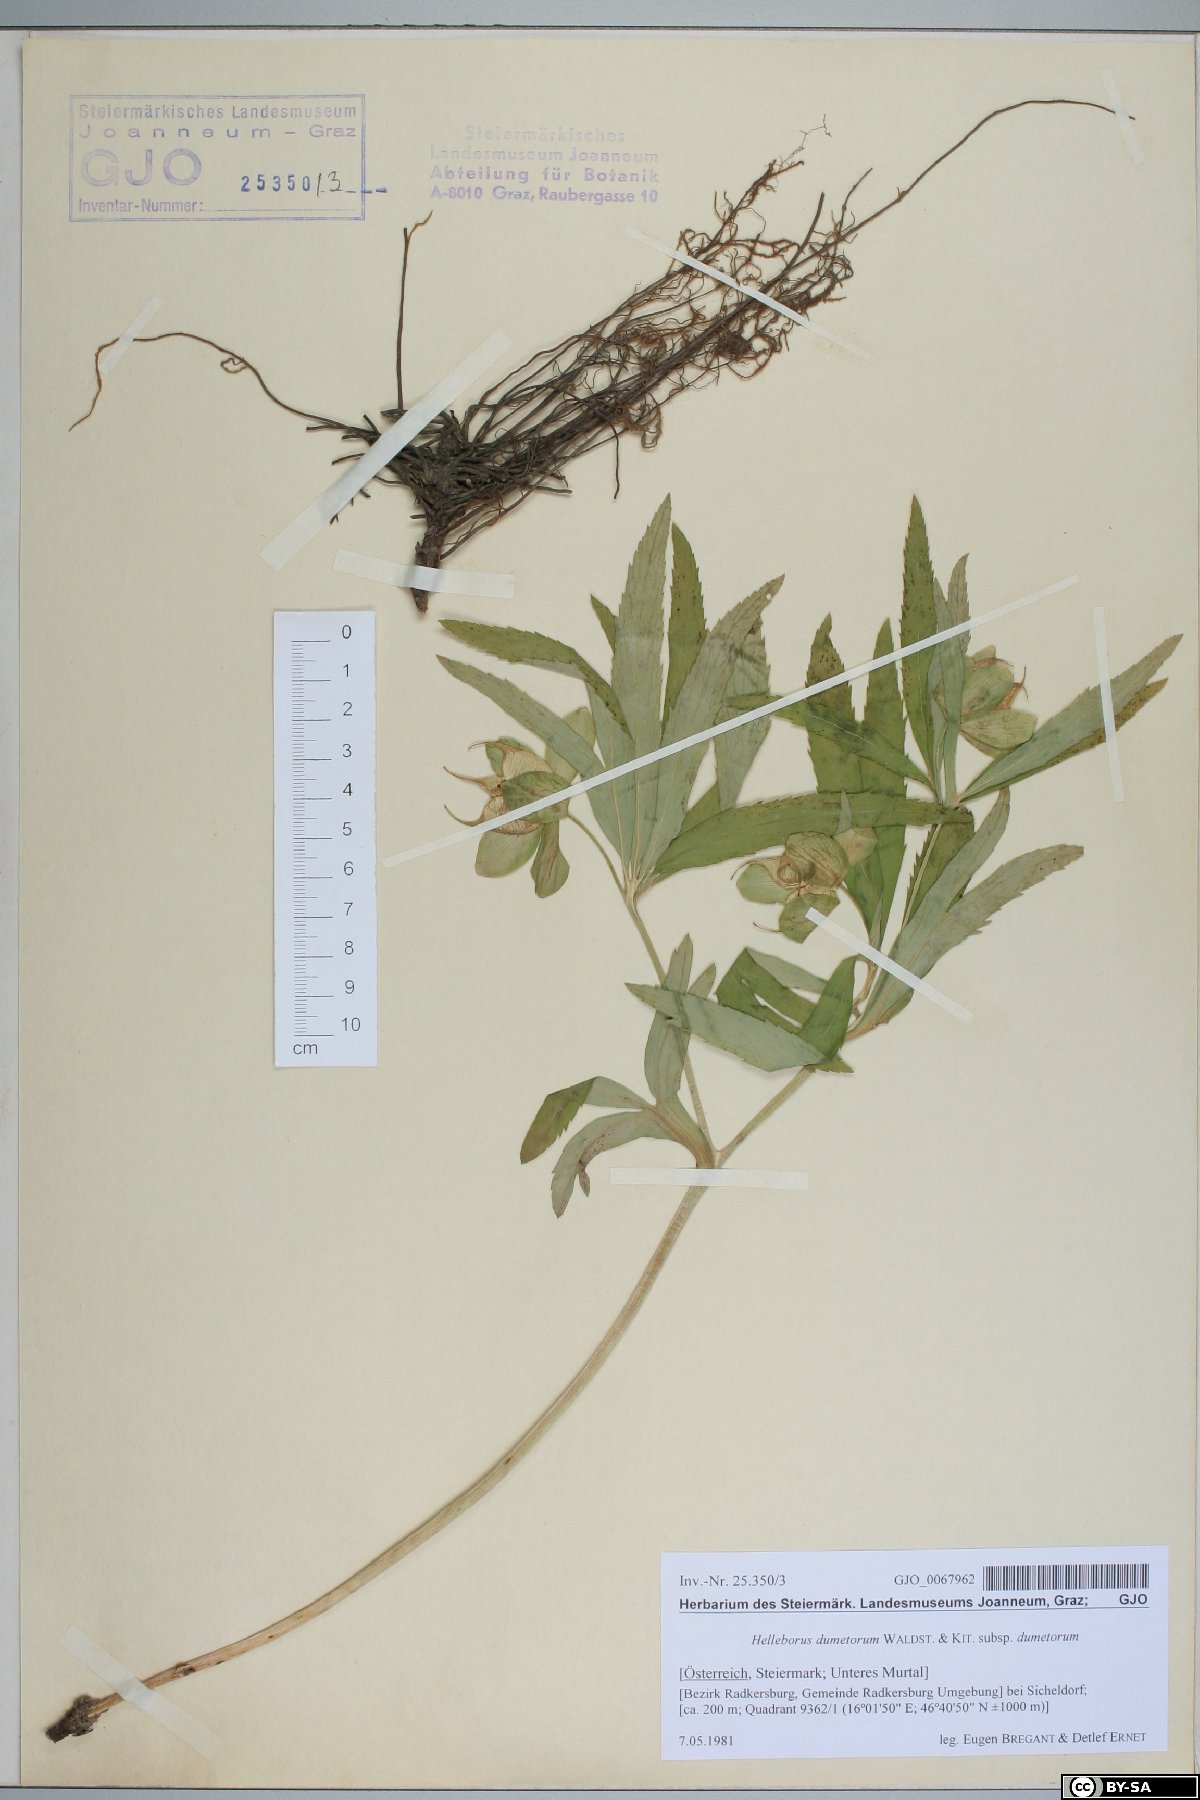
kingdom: Plantae
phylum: Tracheophyta
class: Magnoliopsida
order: Ranunculales
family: Ranunculaceae
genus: Helleborus
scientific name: Helleborus dumetorum
